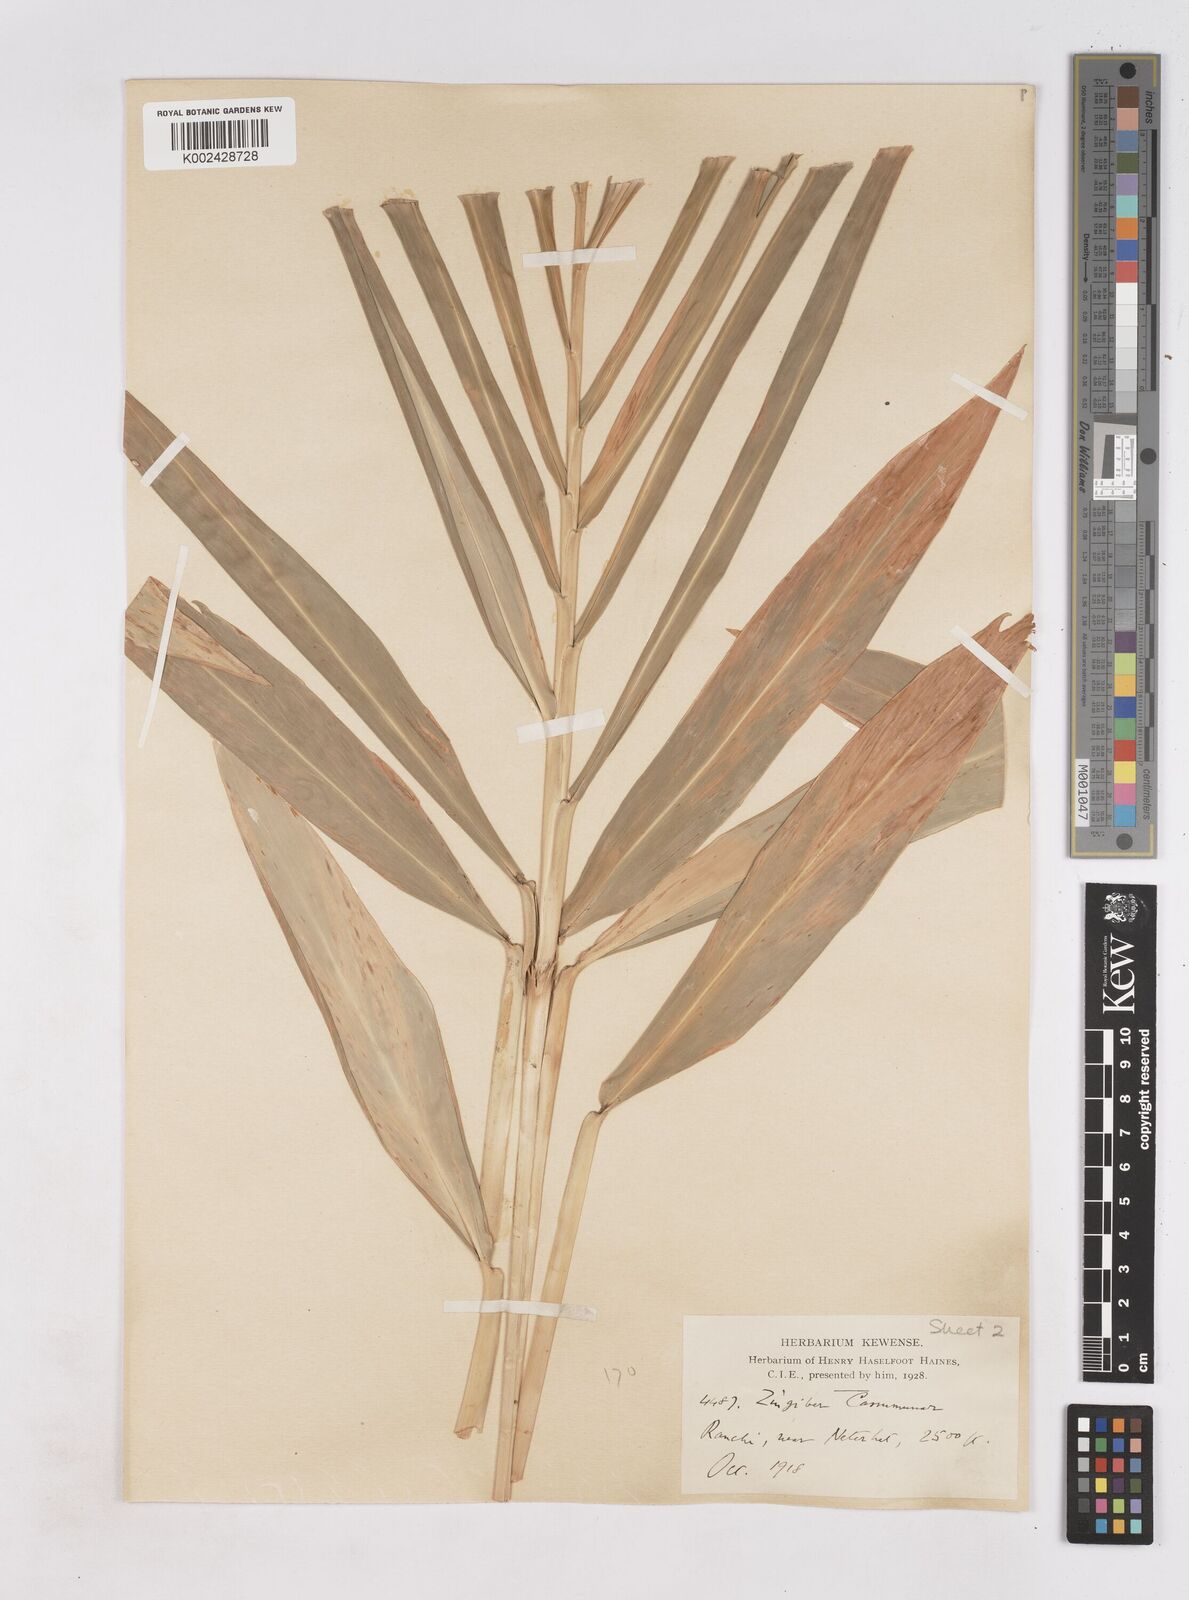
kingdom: Plantae
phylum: Tracheophyta
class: Liliopsida
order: Zingiberales
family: Zingiberaceae
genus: Zingiber
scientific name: Zingiber montanum
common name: Bengal ginger
